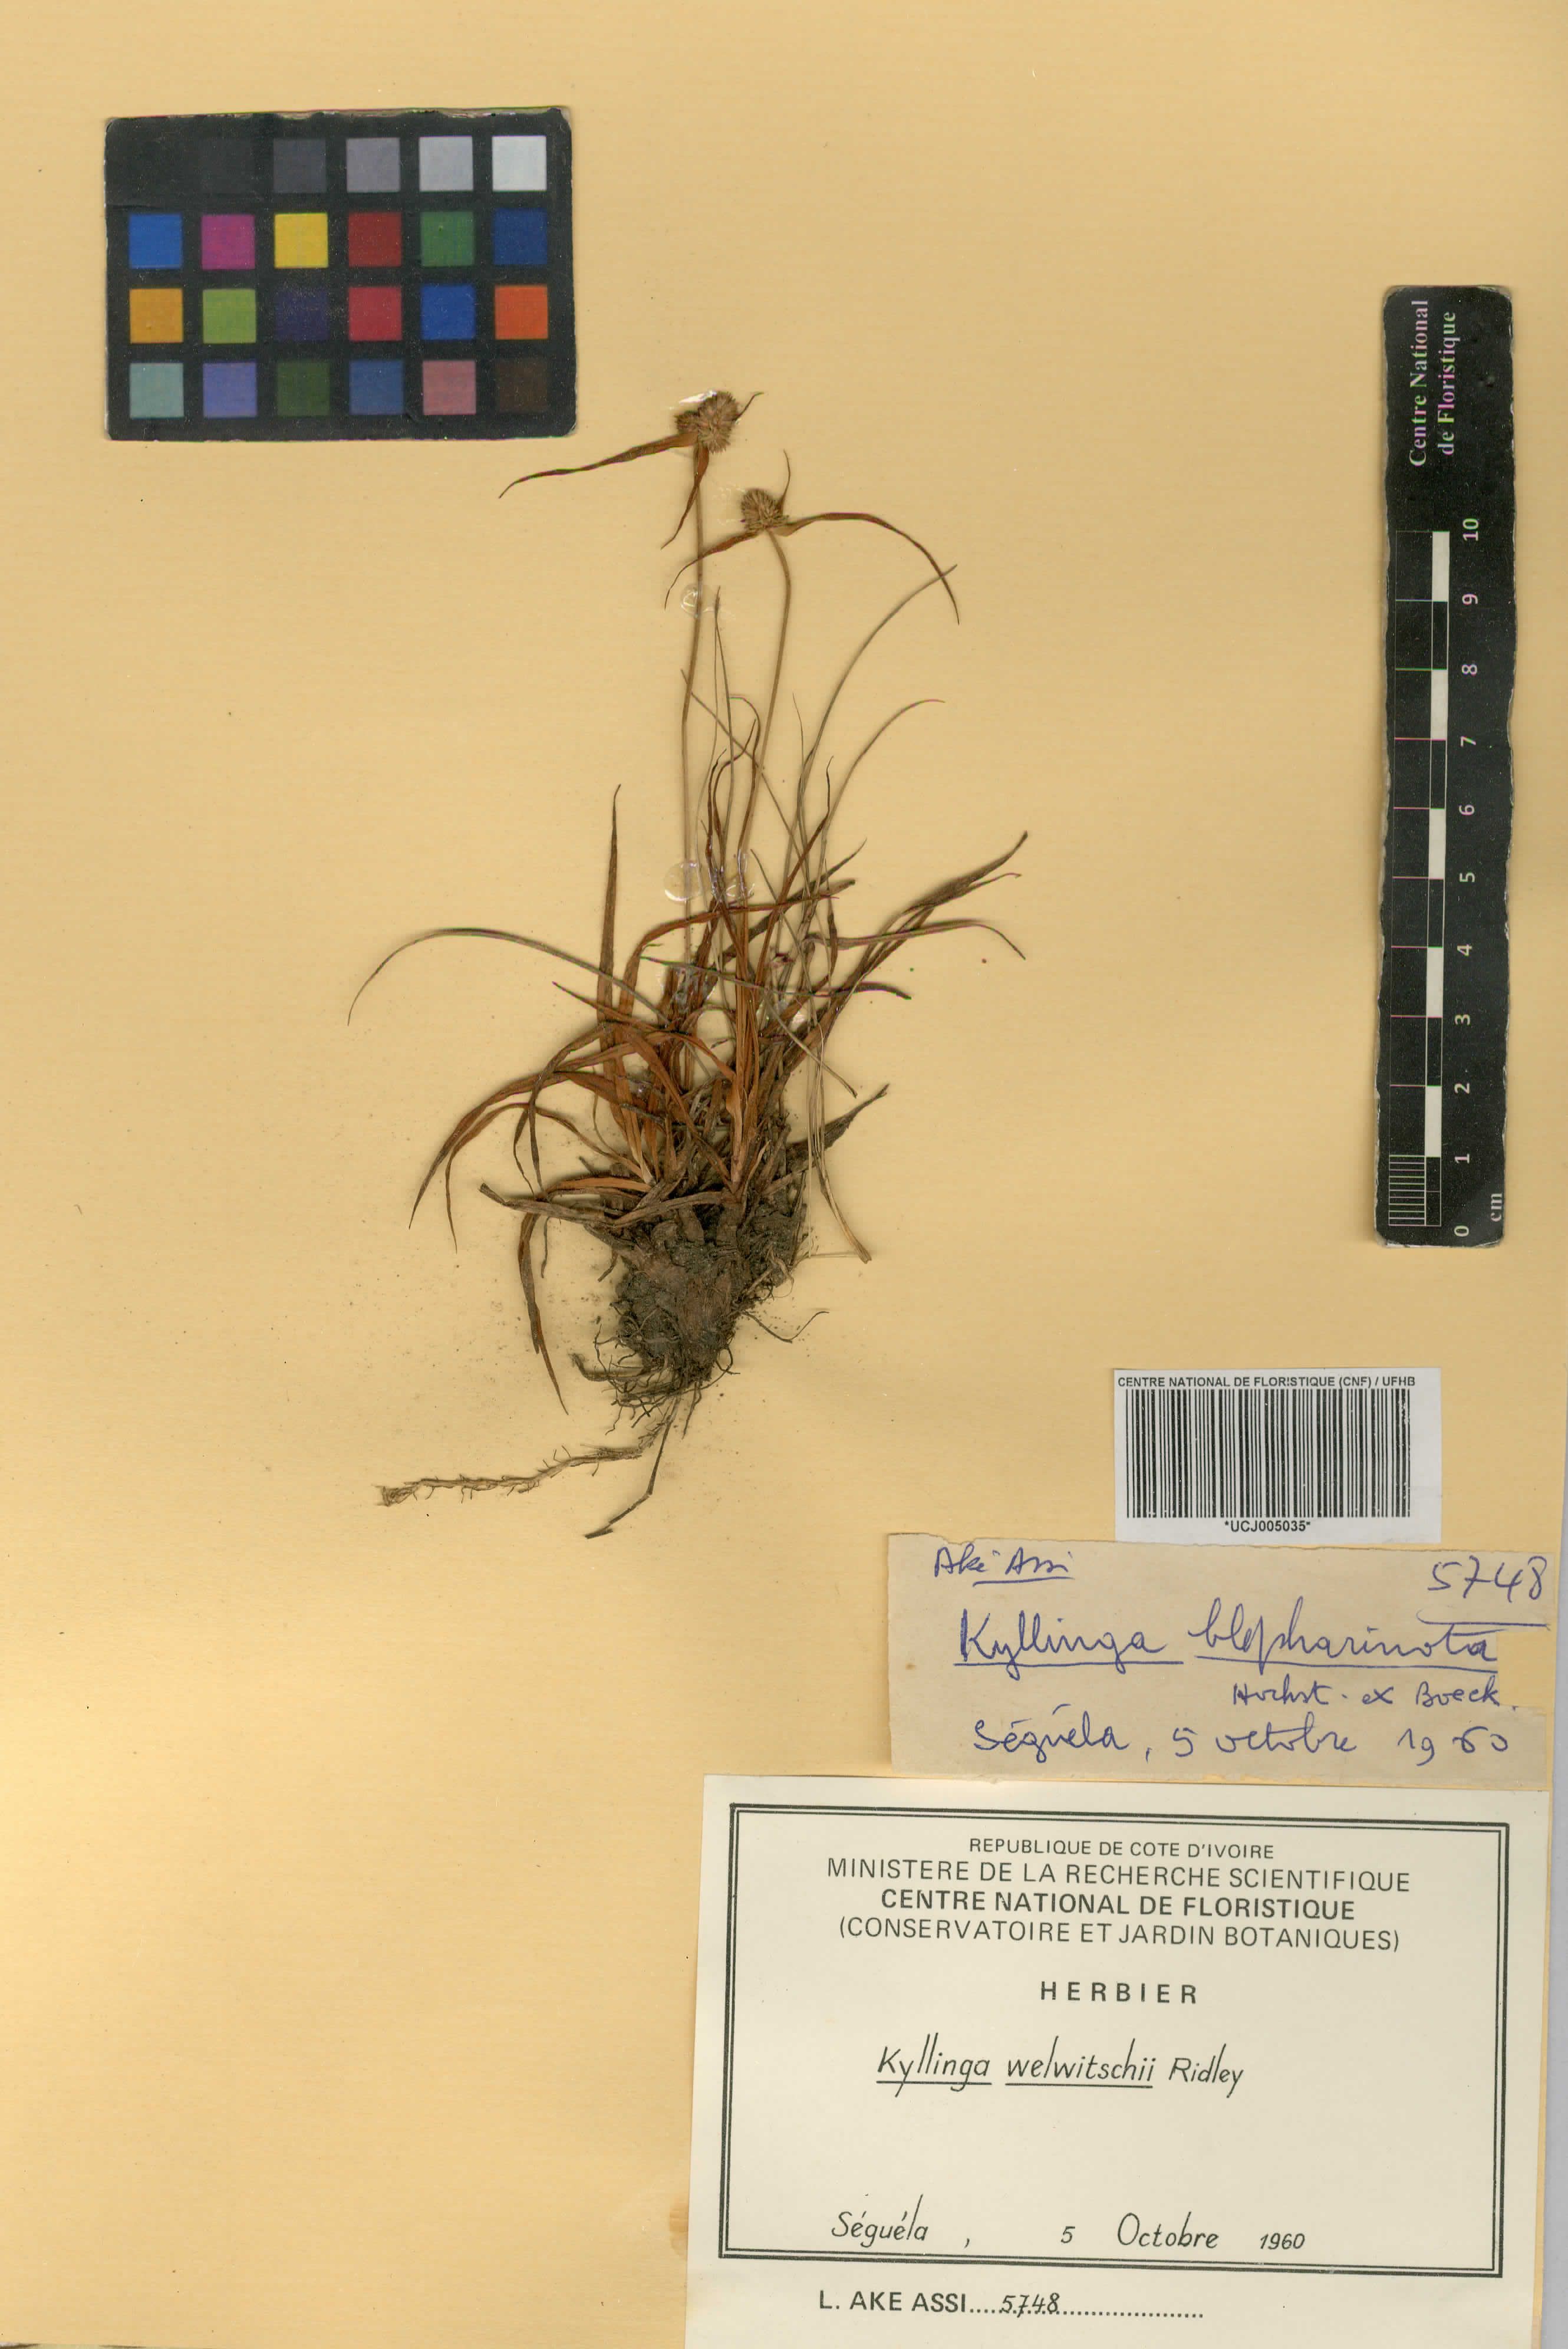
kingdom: Plantae
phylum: Tracheophyta
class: Liliopsida
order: Poales
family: Cyperaceae
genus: Cyperus
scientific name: Cyperus welwitschii
